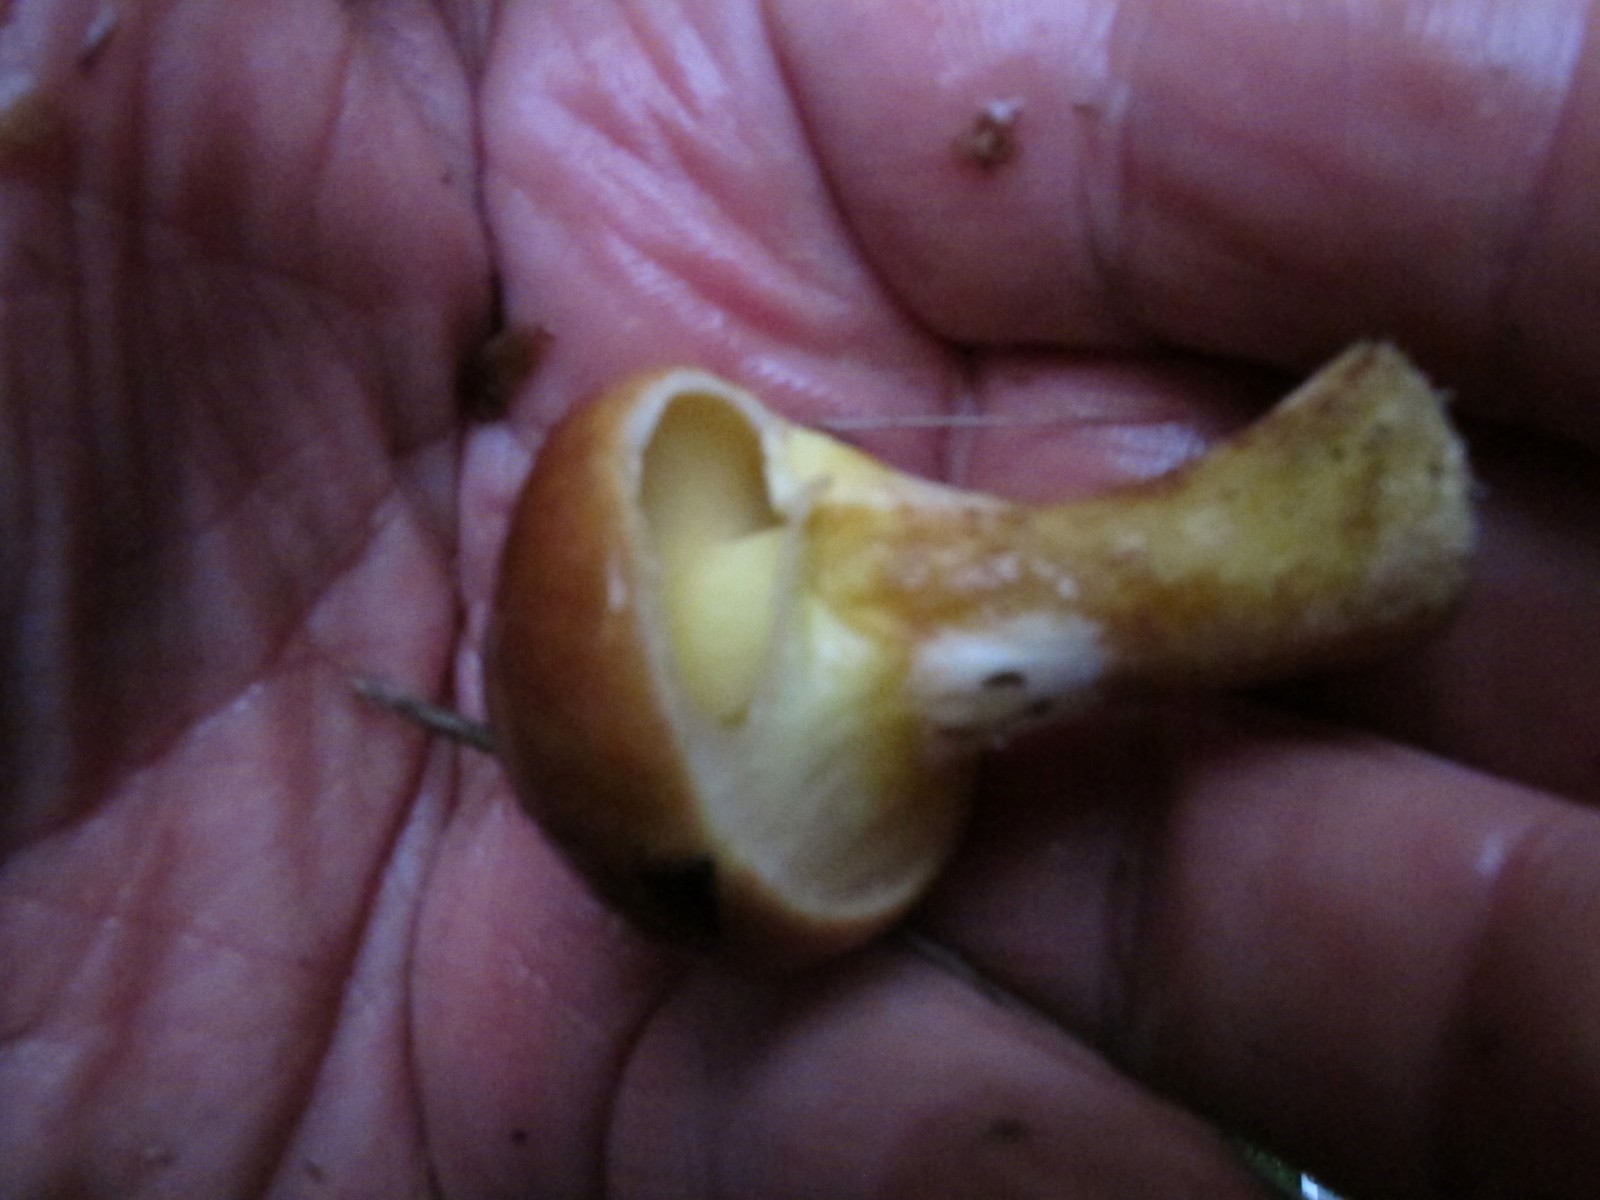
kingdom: Fungi
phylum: Basidiomycota
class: Agaricomycetes
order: Boletales
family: Suillaceae
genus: Suillus
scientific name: Suillus grevillei
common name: lærke-slimrørhat
